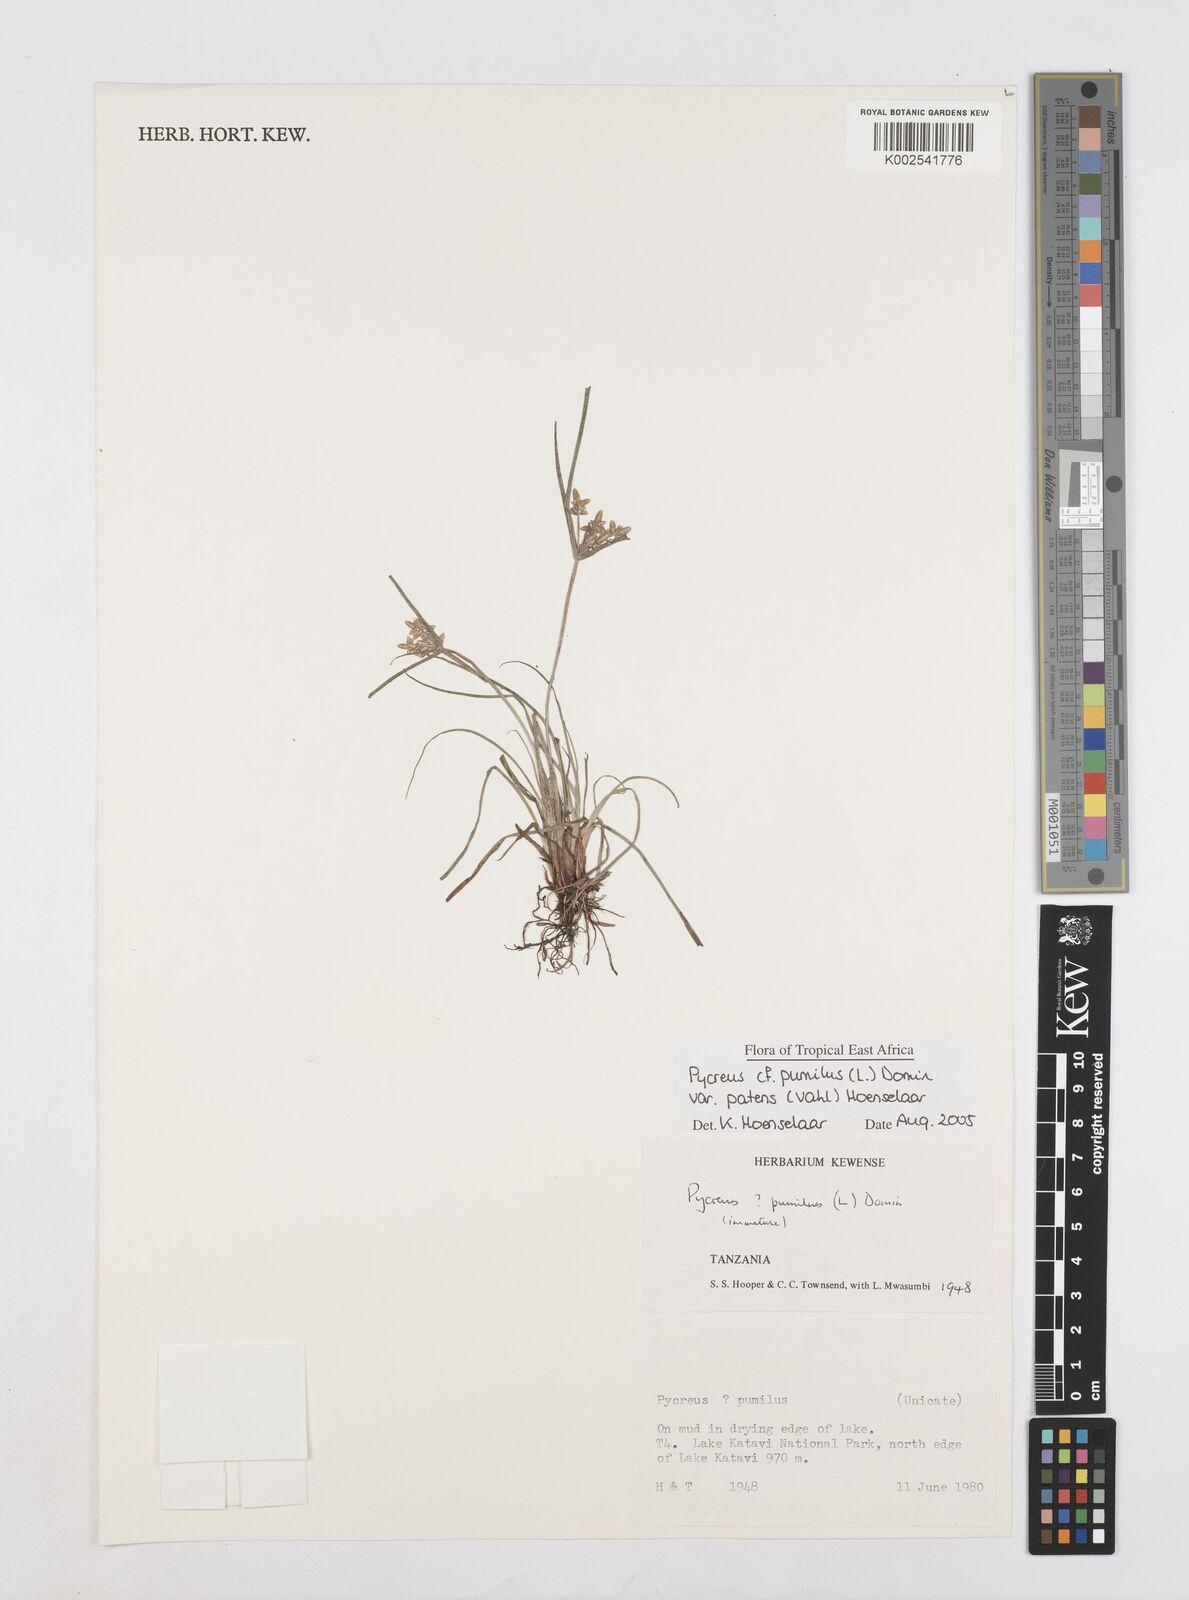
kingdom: Plantae
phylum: Tracheophyta
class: Liliopsida
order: Poales
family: Cyperaceae
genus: Cyperus
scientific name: Cyperus pumilus
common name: Low flatsedge
